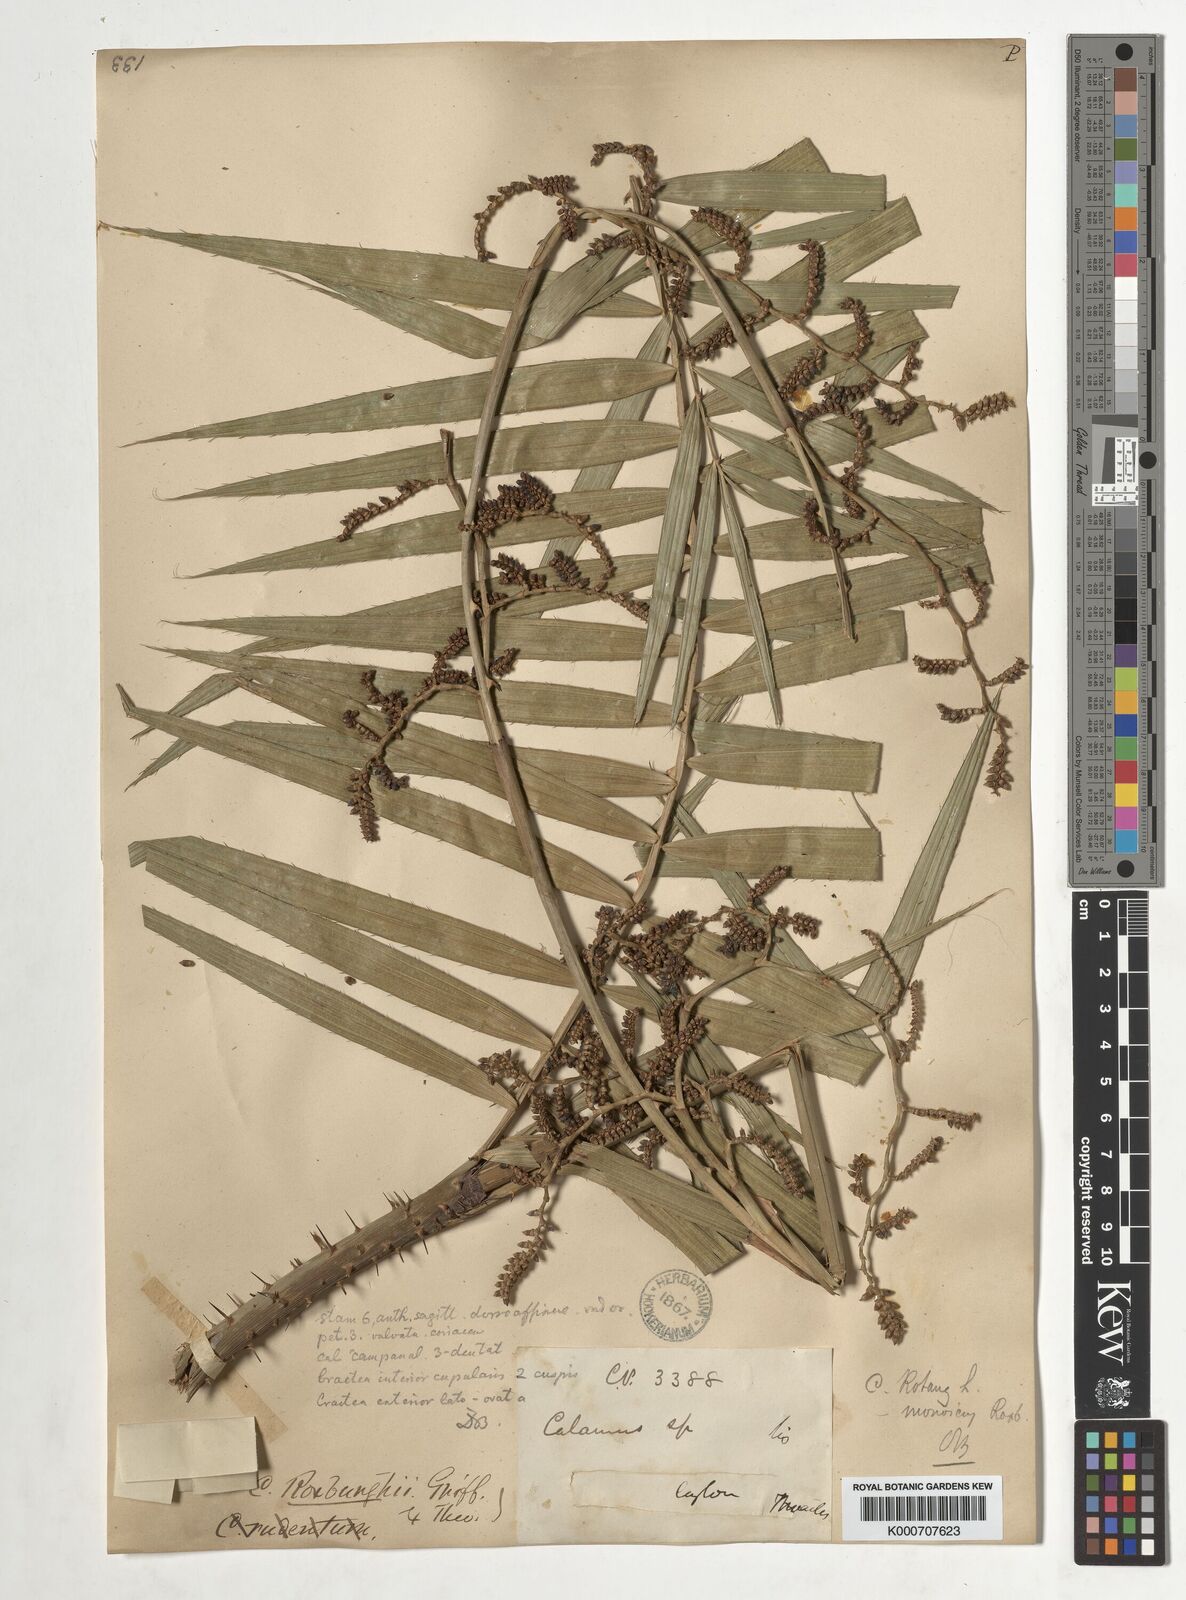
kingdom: Plantae
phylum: Tracheophyta
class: Liliopsida
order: Arecales
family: Arecaceae
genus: Calamus
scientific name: Calamus rotang
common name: Rattan cane
